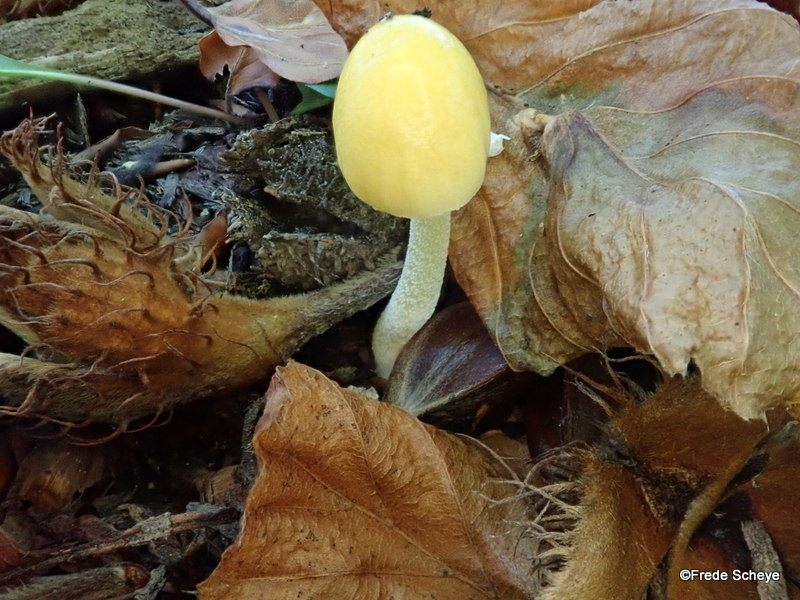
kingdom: Fungi
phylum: Basidiomycota
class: Agaricomycetes
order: Agaricales
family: Bolbitiaceae
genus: Bolbitius
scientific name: Bolbitius titubans
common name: almindelig gulhat
